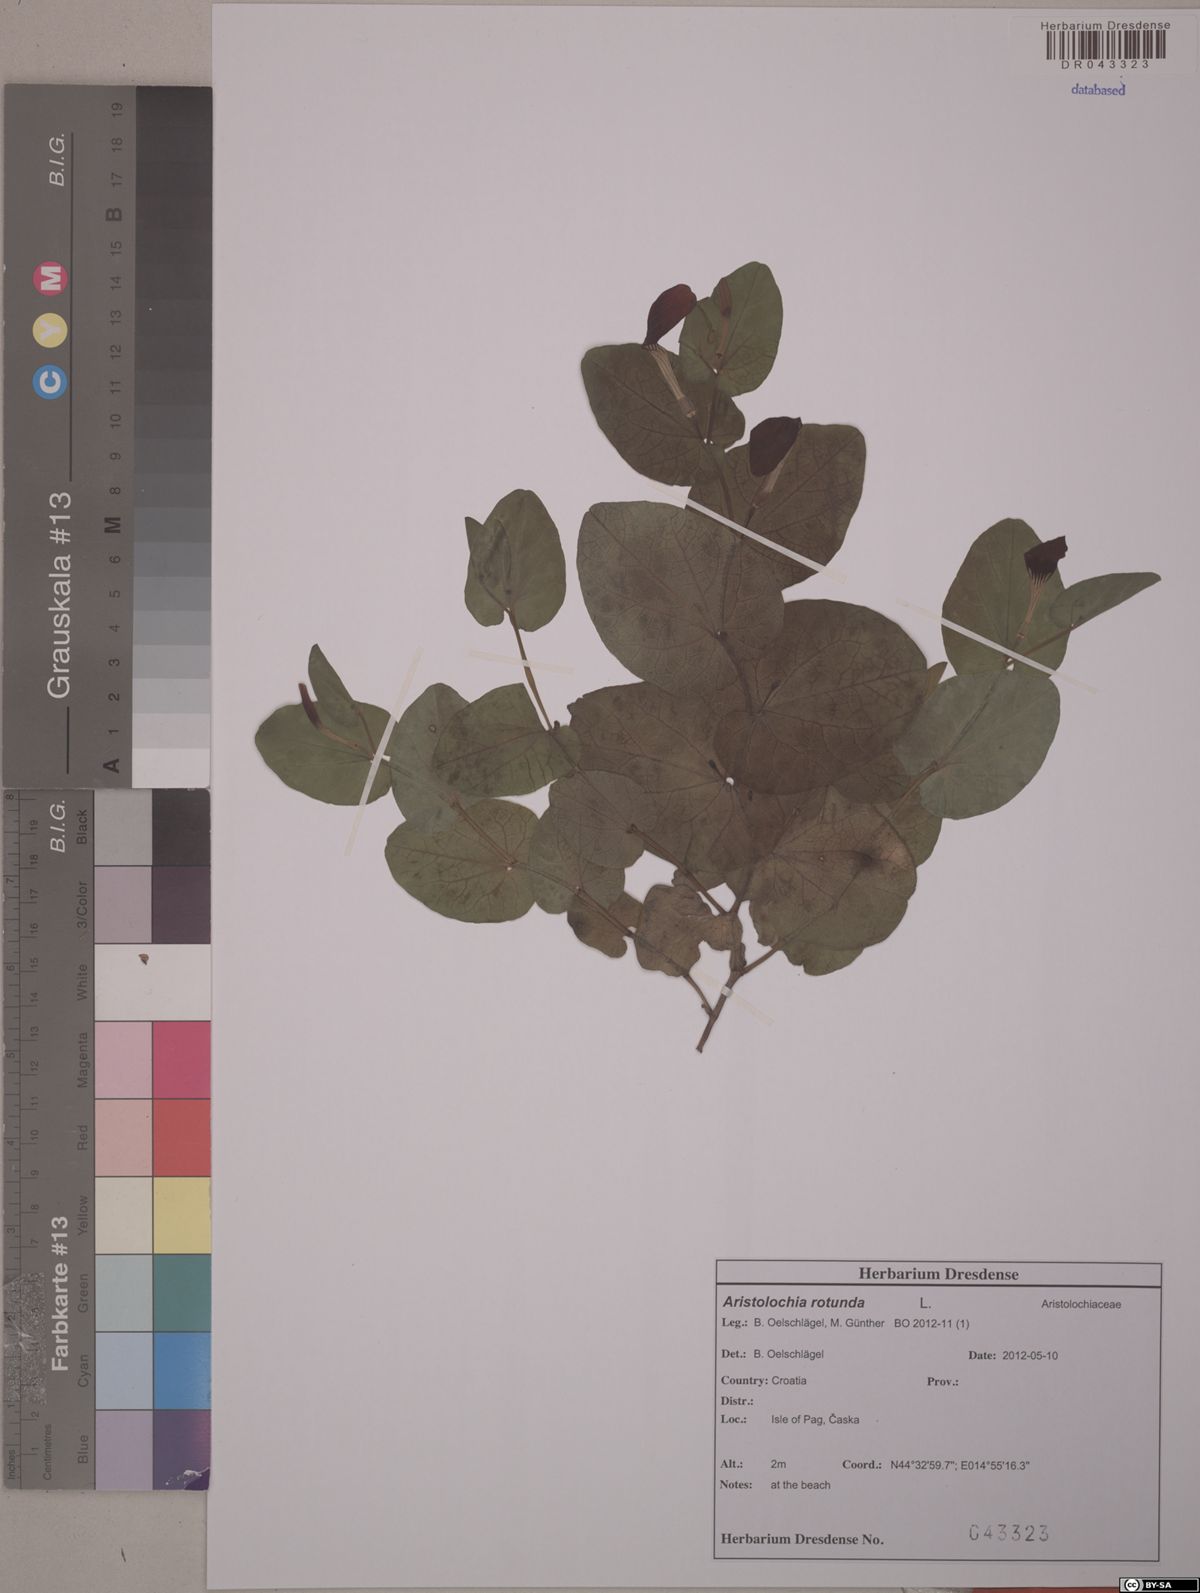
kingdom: Plantae
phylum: Tracheophyta
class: Magnoliopsida
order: Piperales
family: Aristolochiaceae
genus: Aristolochia
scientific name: Aristolochia rotunda
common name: Smearwort
